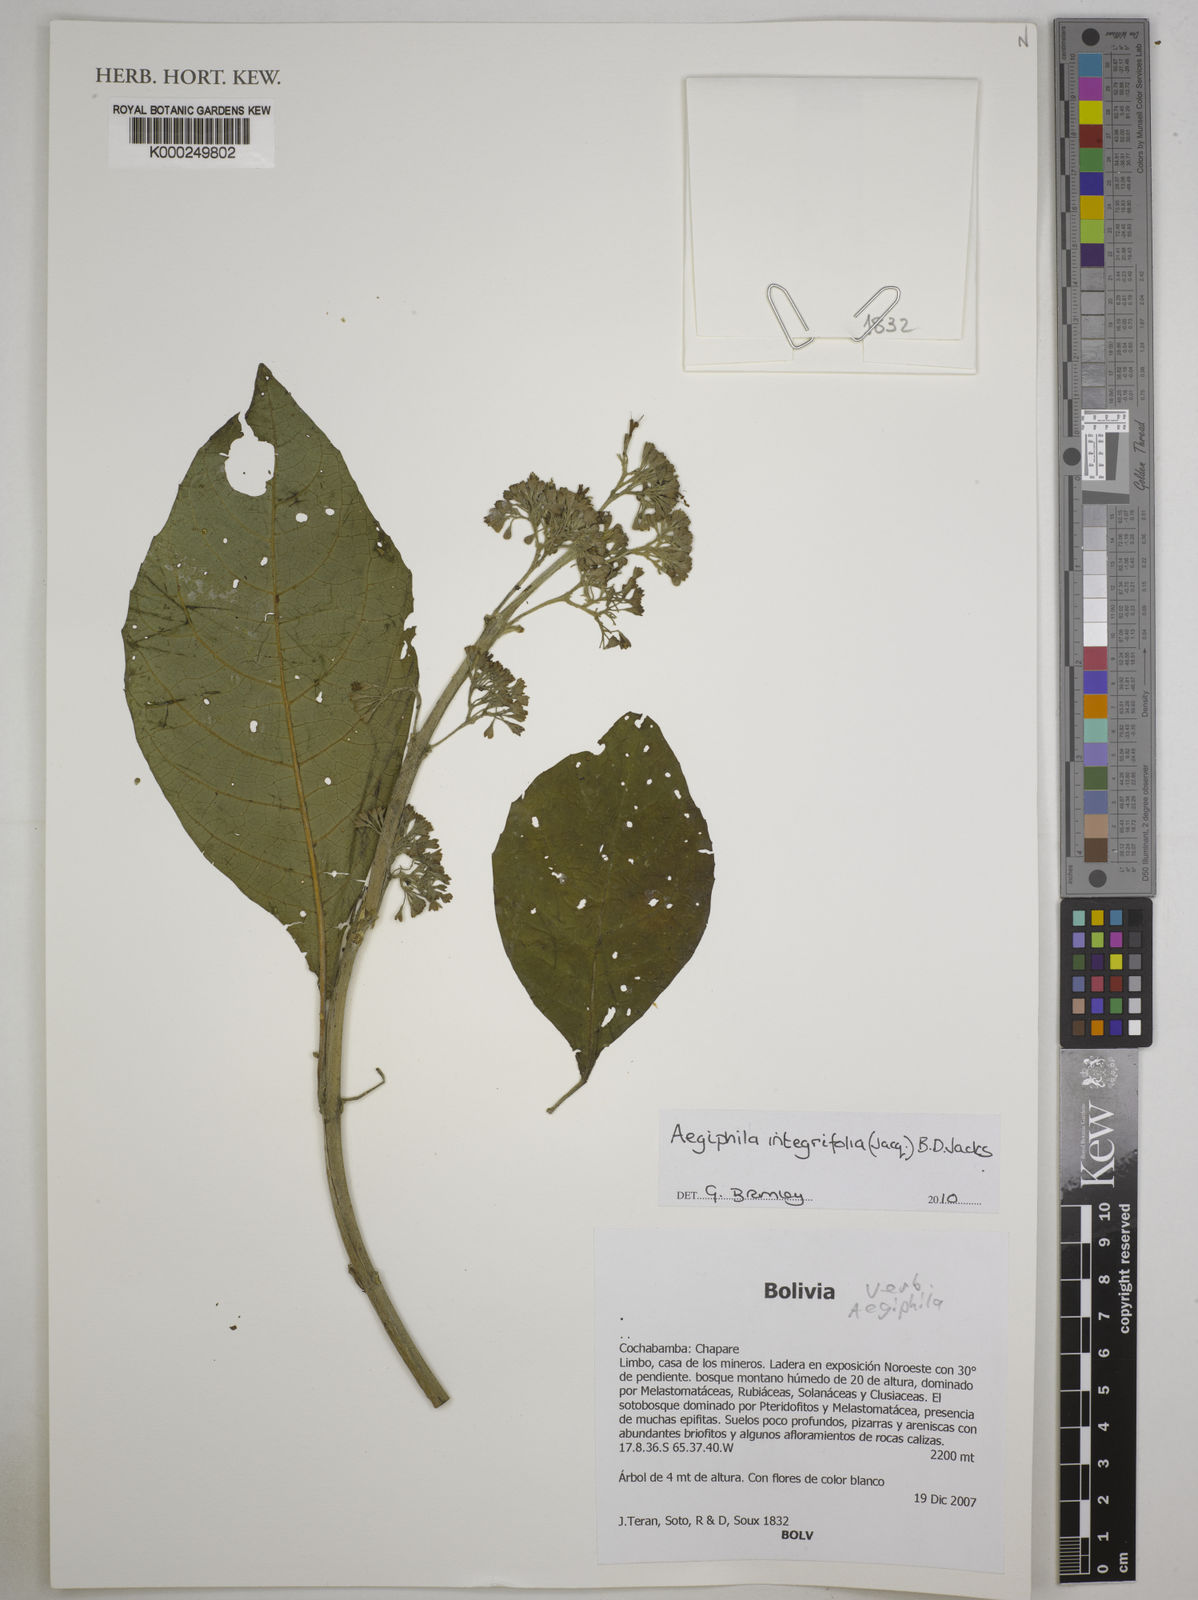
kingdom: Plantae
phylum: Tracheophyta
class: Magnoliopsida
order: Lamiales
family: Lamiaceae
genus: Aegiphila
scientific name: Aegiphila integrifolia
